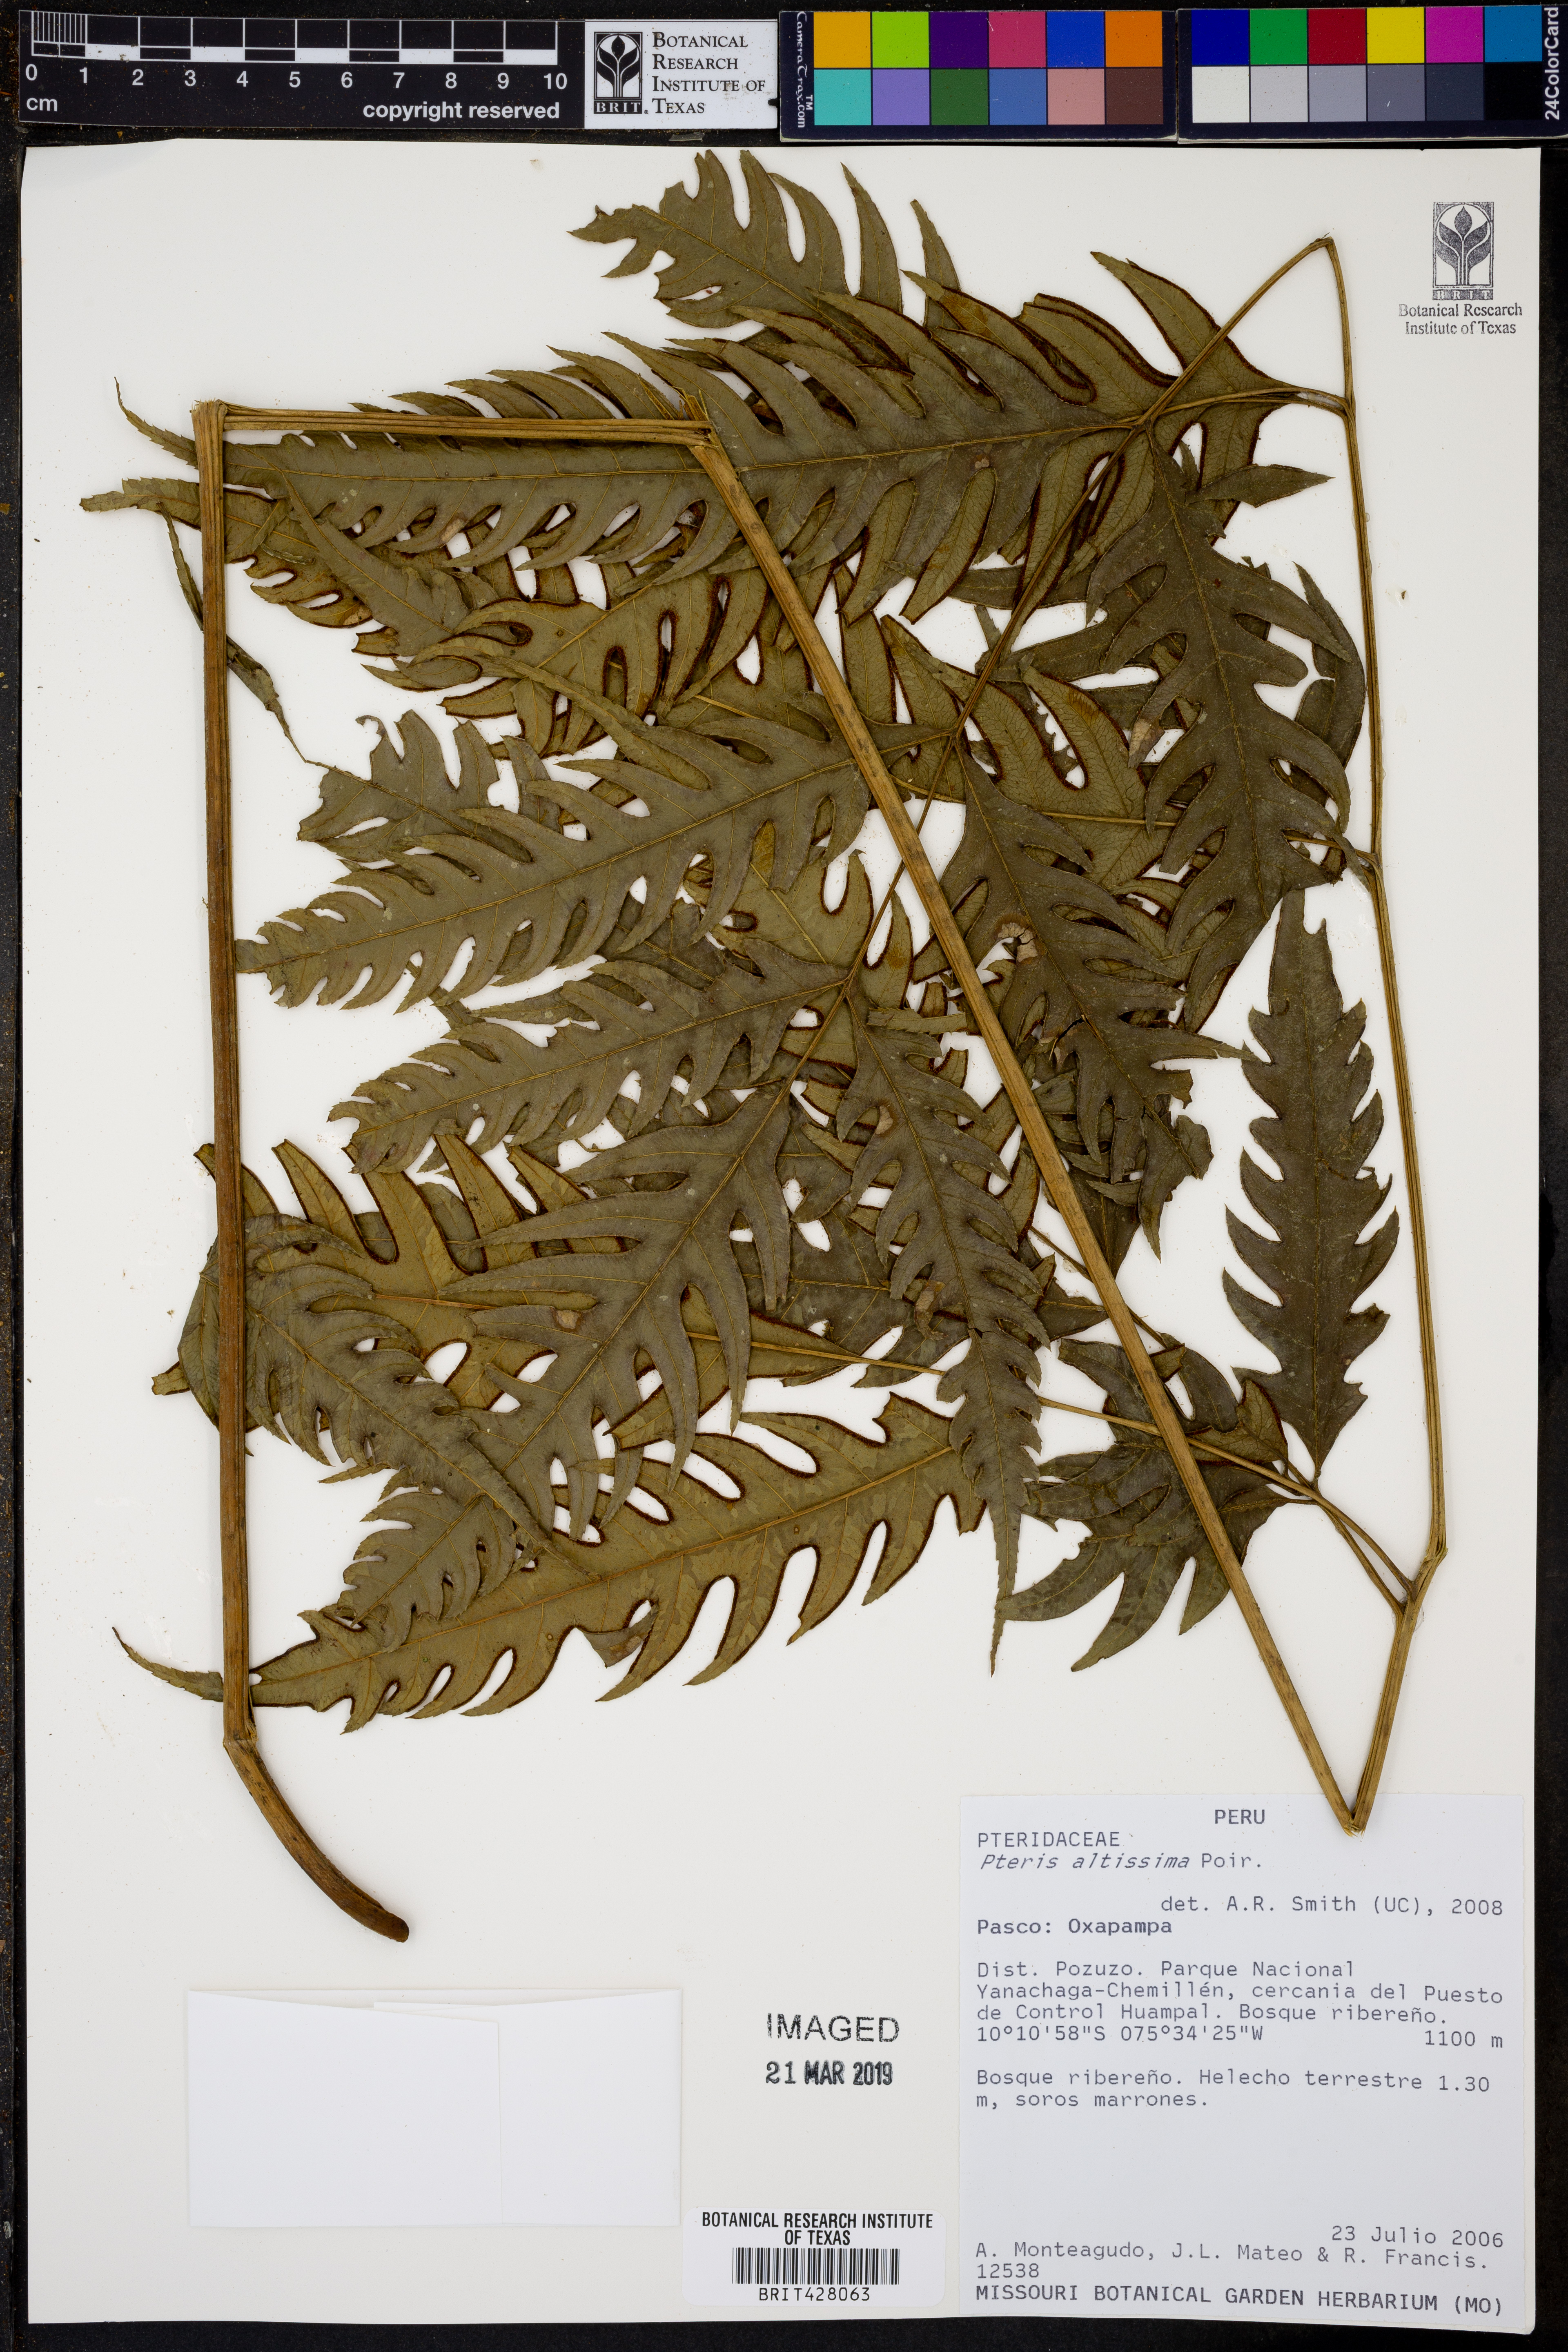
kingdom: Plantae
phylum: Tracheophyta
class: Polypodiopsida
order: Polypodiales
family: Pteridaceae
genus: Pteris
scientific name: Pteris altissima
